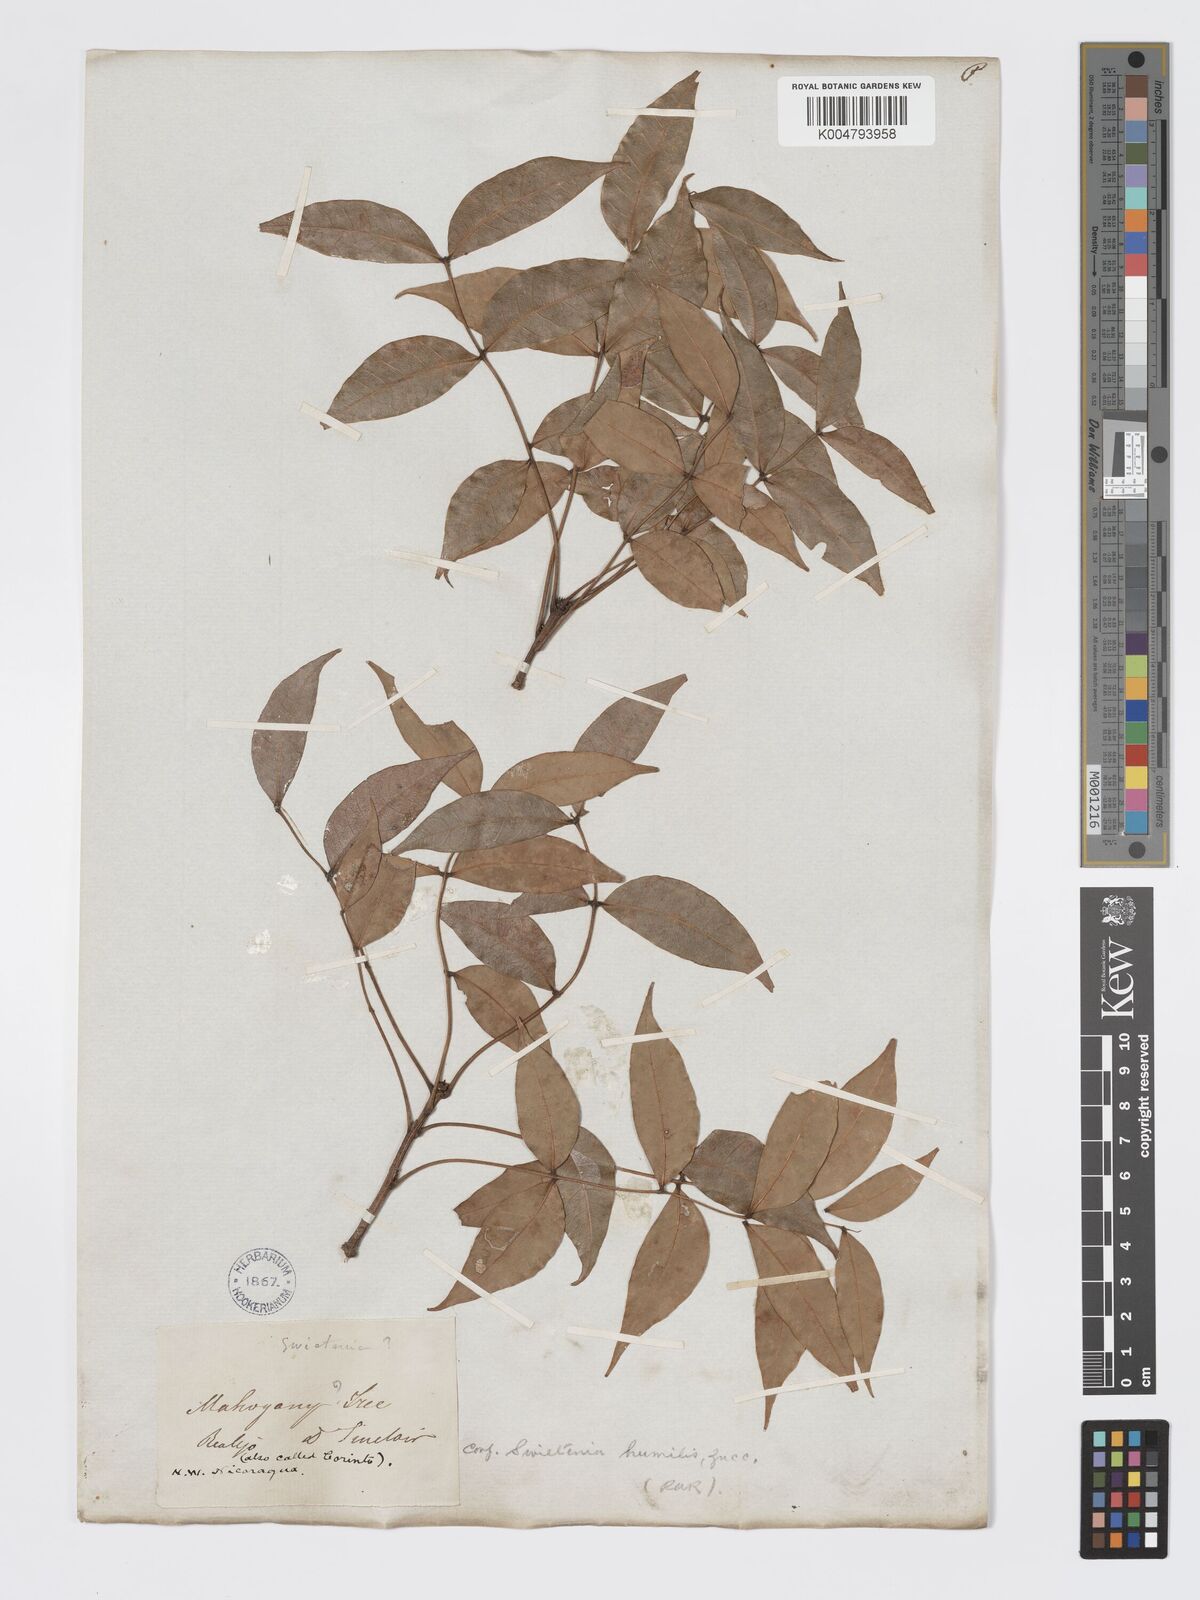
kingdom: Plantae
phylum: Tracheophyta
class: Magnoliopsida
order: Sapindales
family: Meliaceae
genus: Swietenia
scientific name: Swietenia humilis
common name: Pacific coast mahogany
